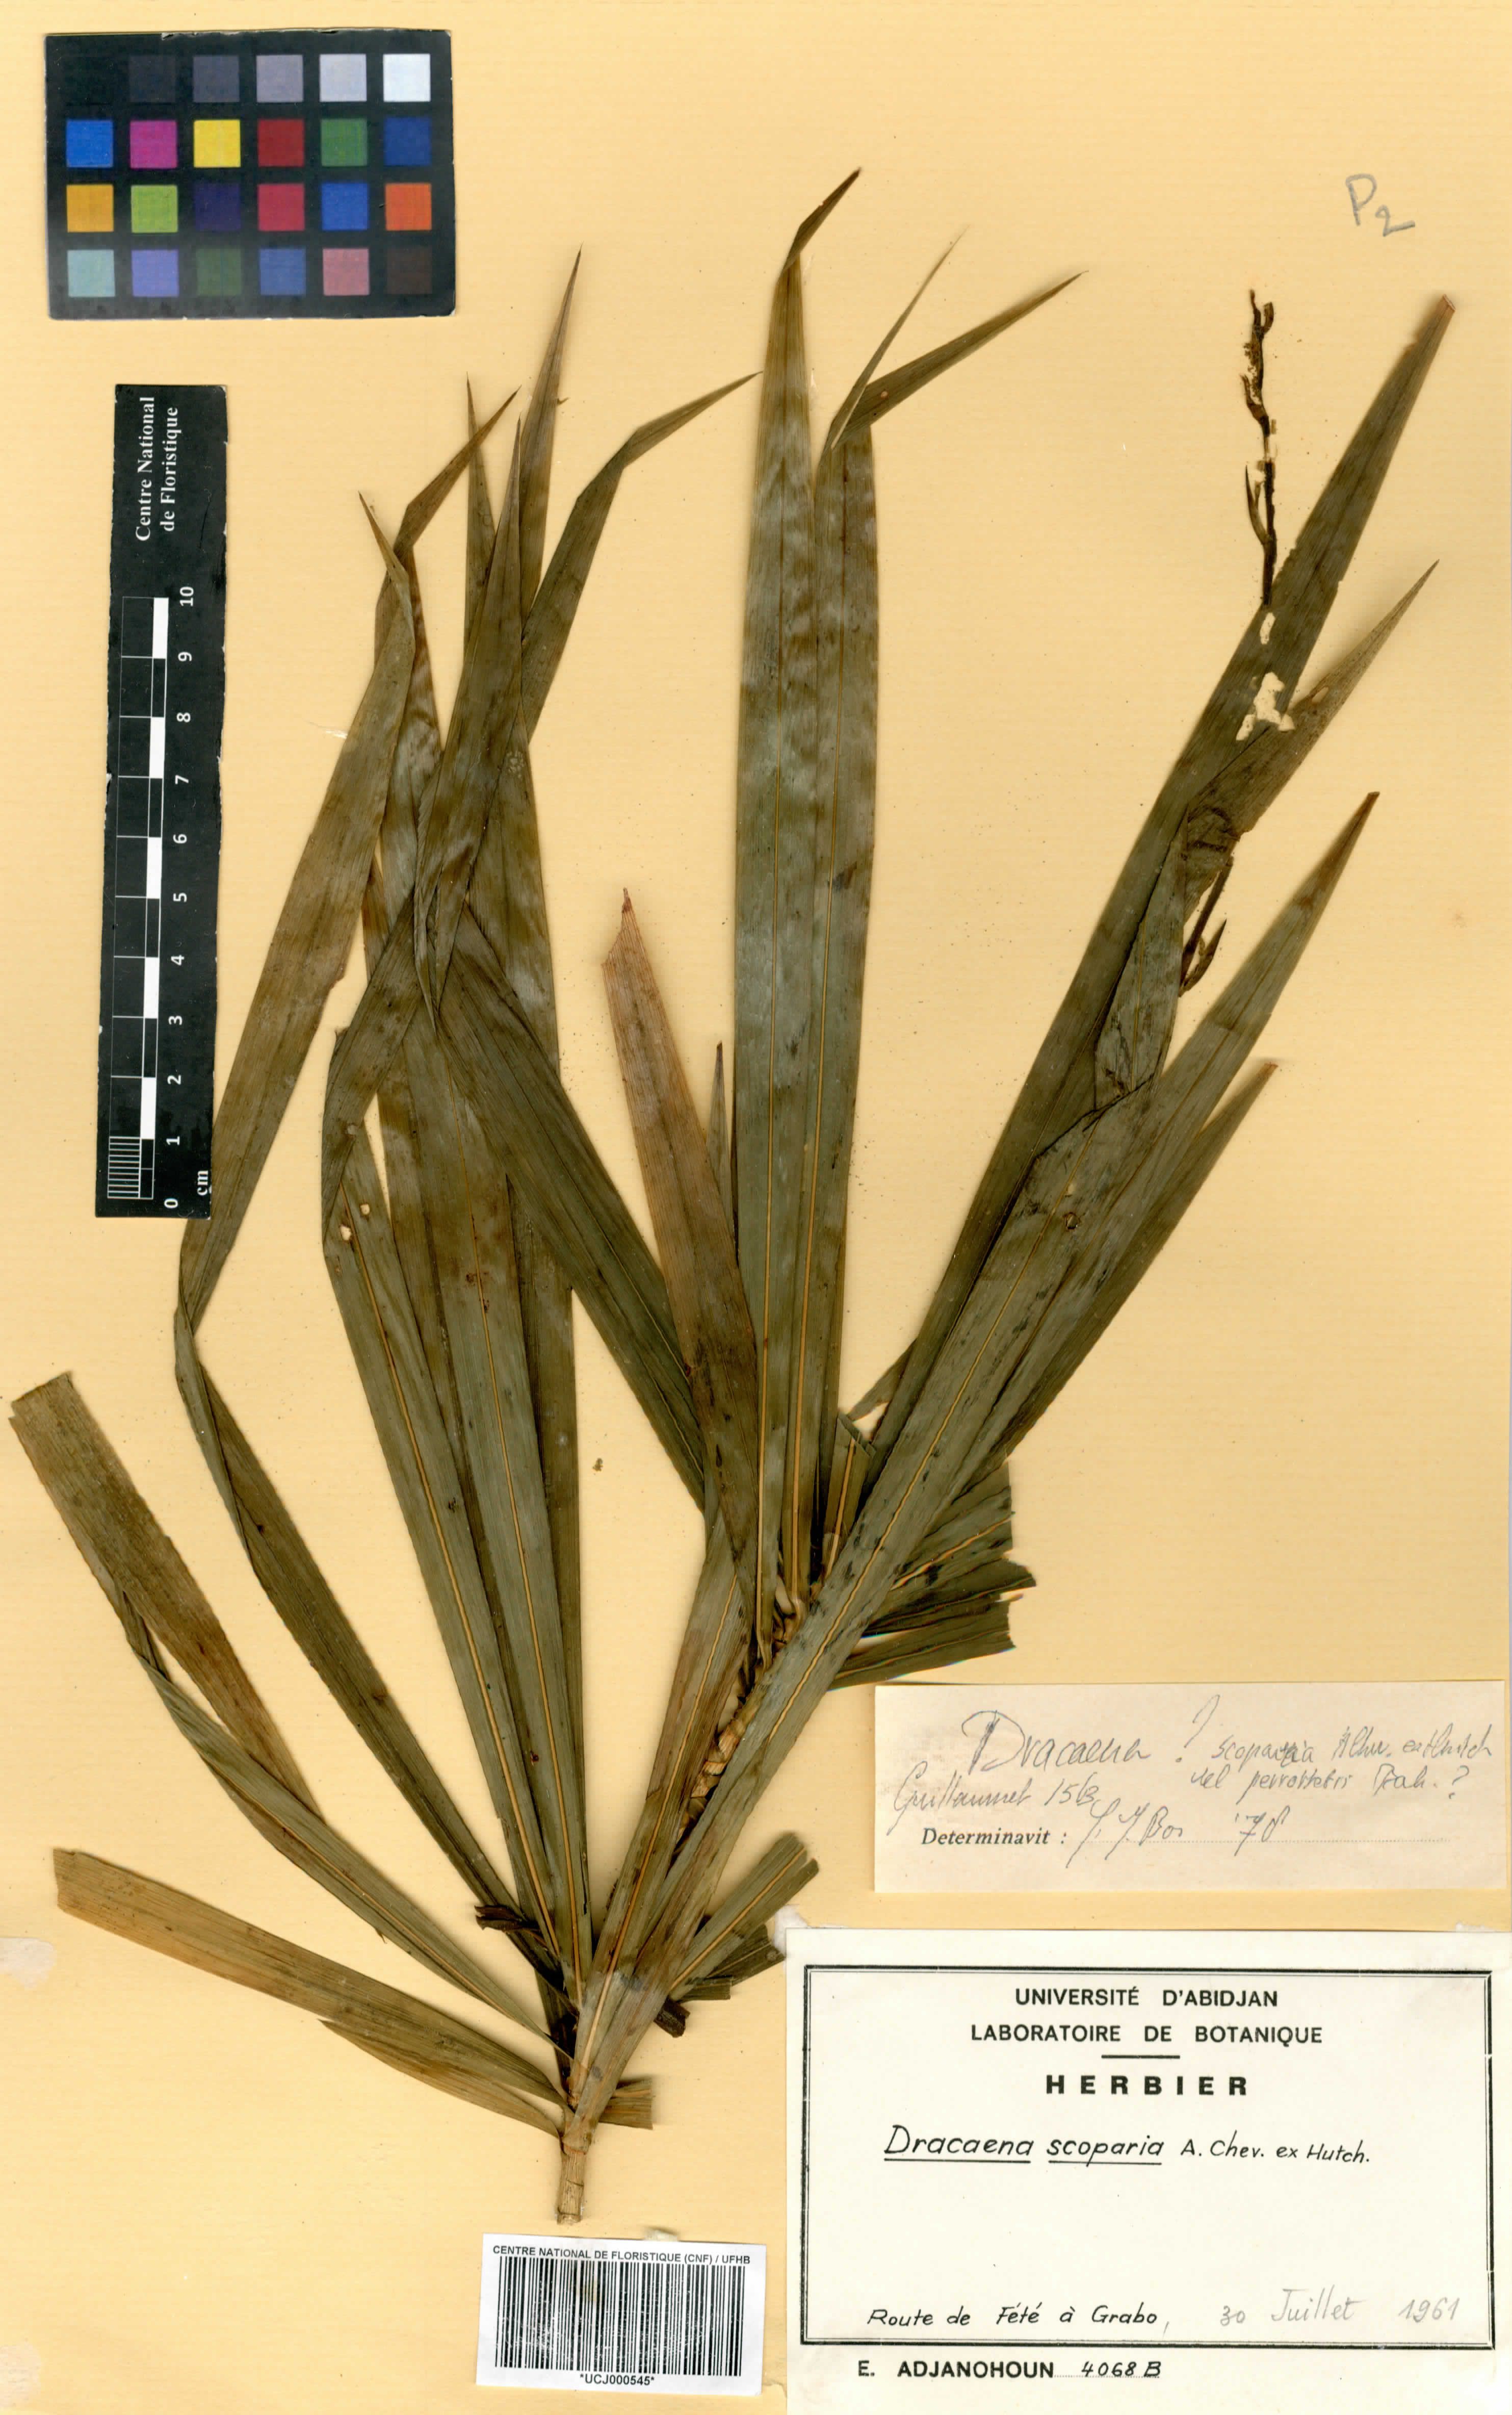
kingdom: Plantae
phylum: Tracheophyta
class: Liliopsida
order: Asparagales
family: Asparagaceae
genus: Dracaena
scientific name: Dracaena cerasifera
